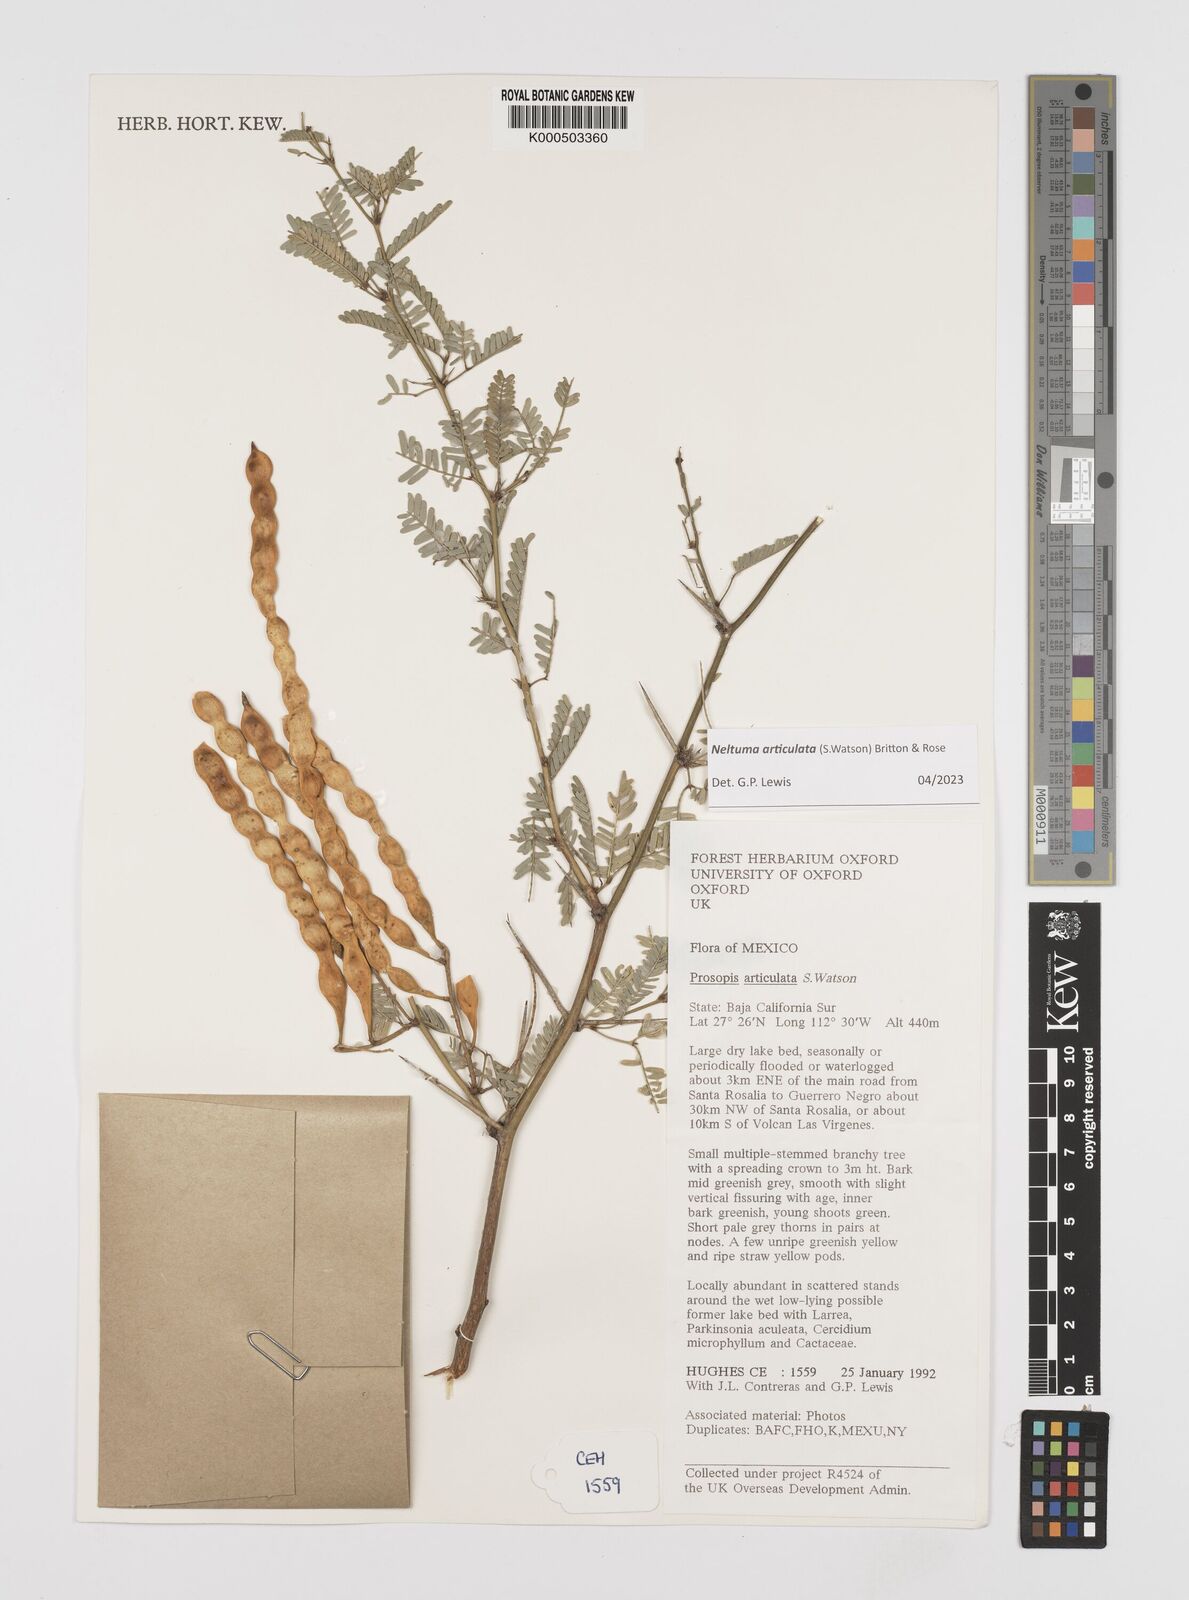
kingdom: Plantae
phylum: Tracheophyta
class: Magnoliopsida
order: Fabales
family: Fabaceae
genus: Prosopis
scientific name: Prosopis articulata
